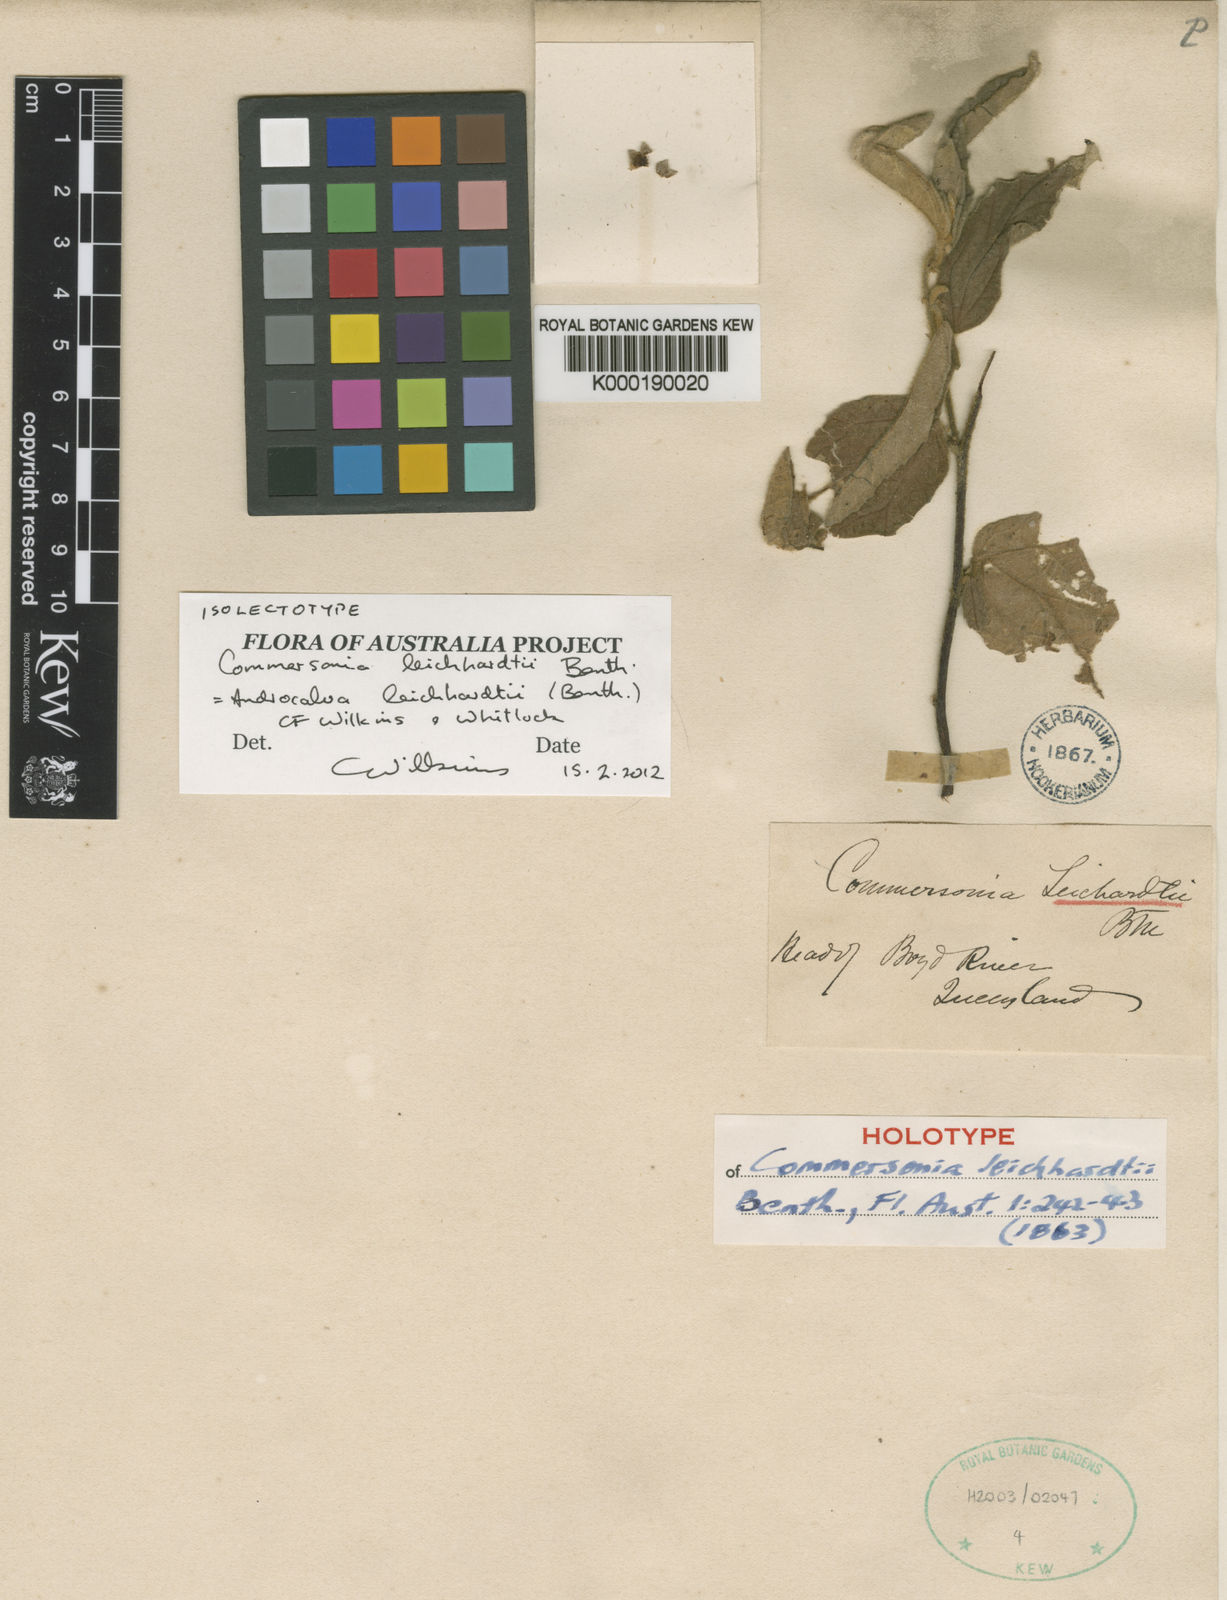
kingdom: Plantae
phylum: Tracheophyta
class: Magnoliopsida
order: Malvales
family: Malvaceae
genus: Androcalva
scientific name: Androcalva leichhardtii
